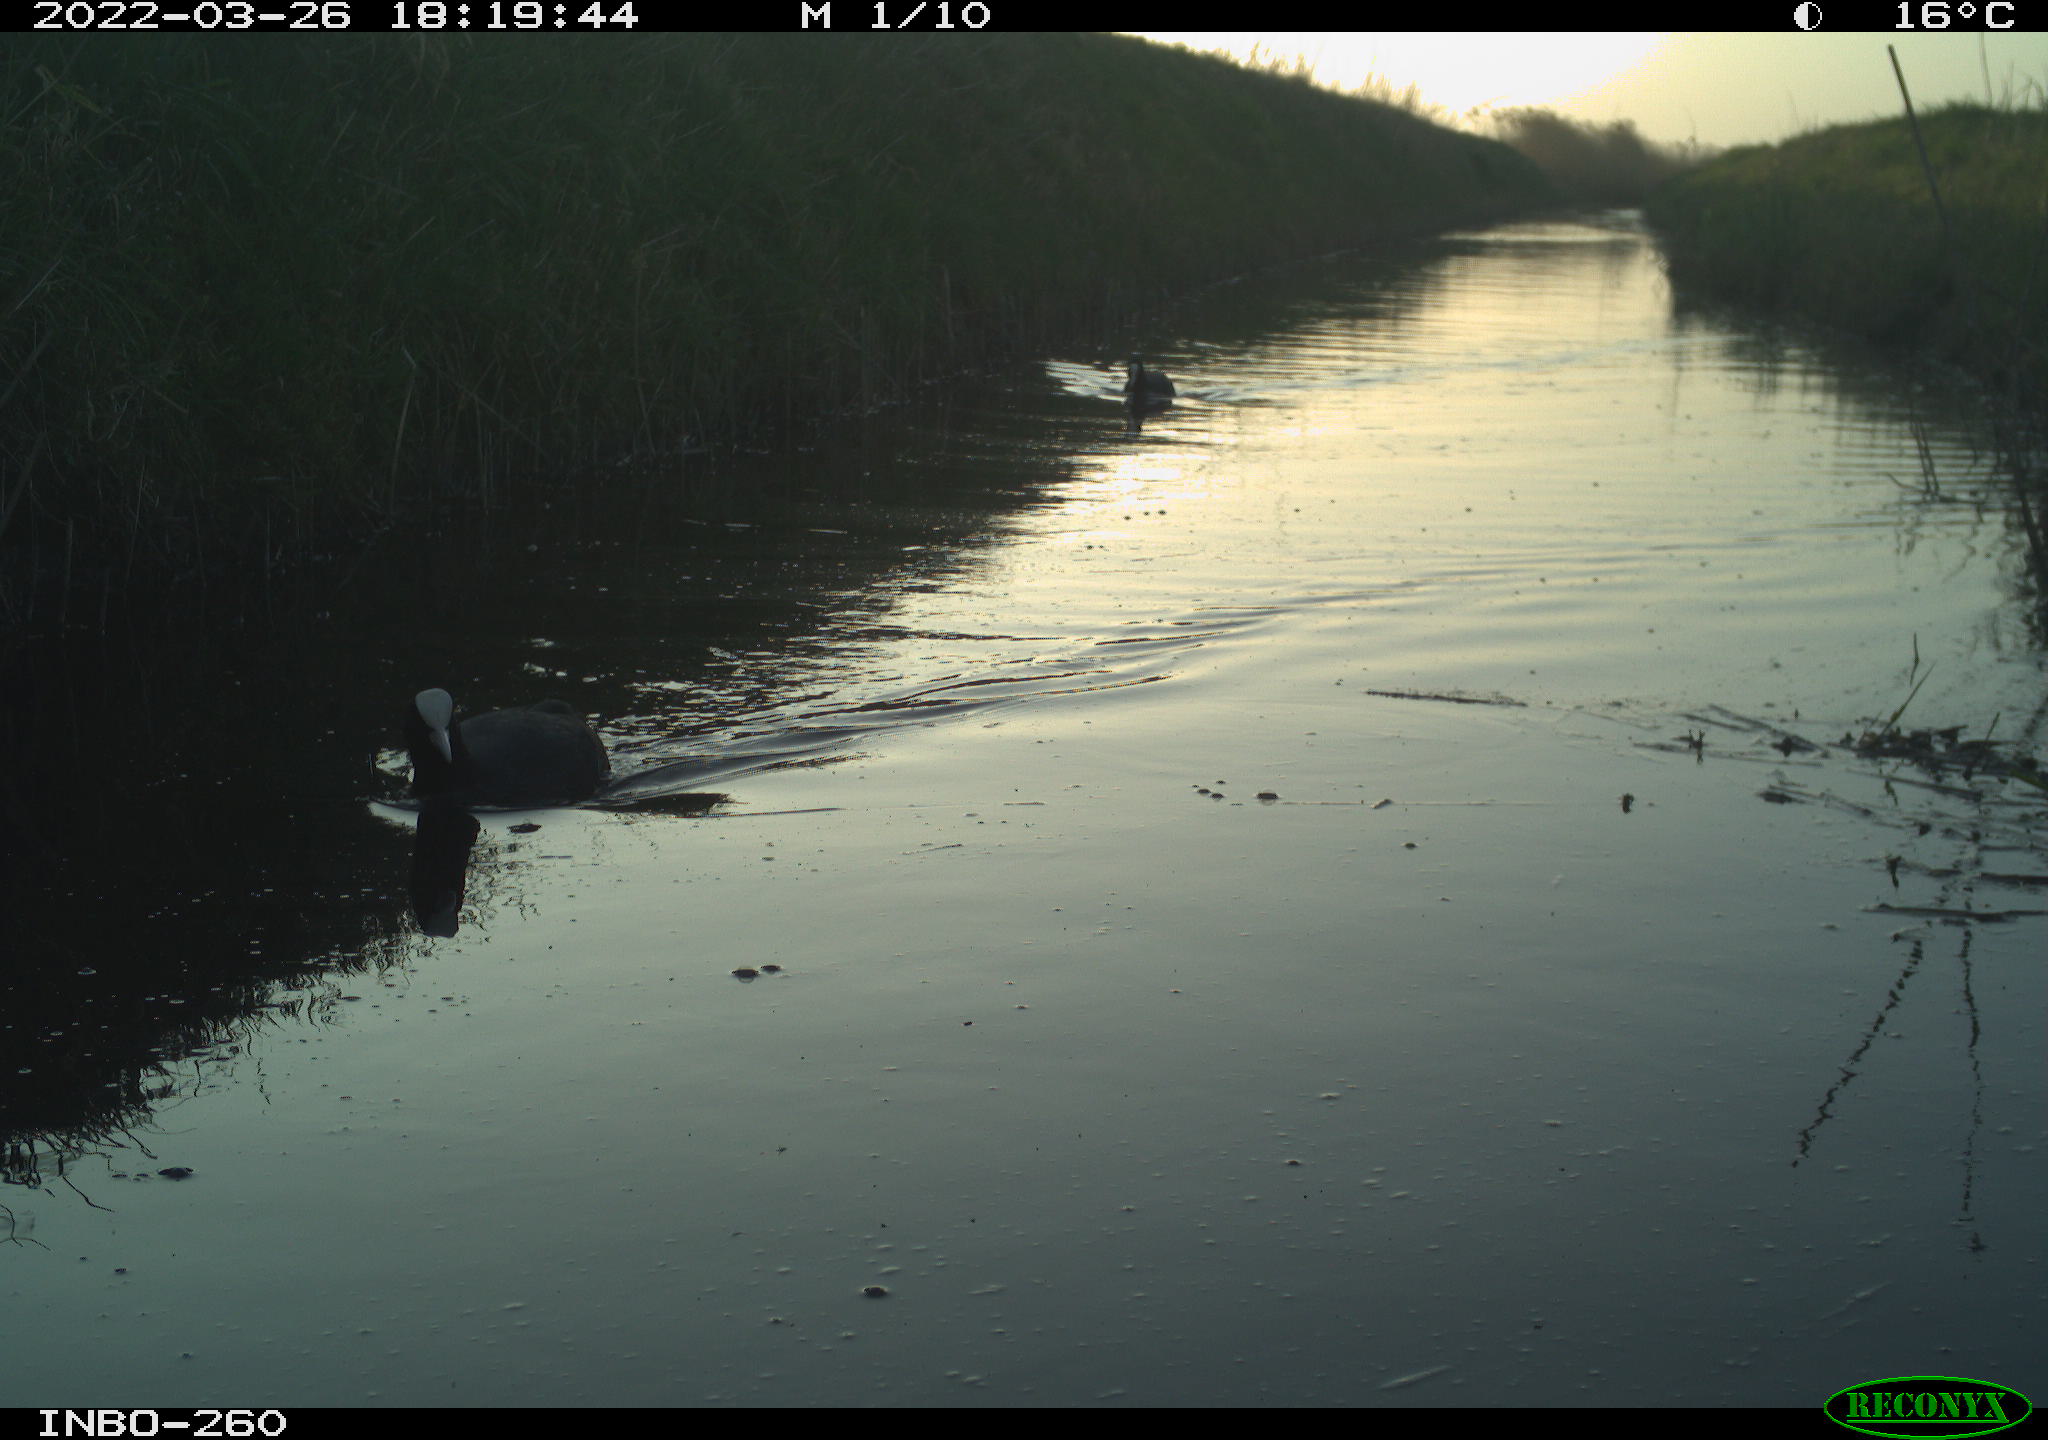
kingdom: Animalia
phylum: Chordata
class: Aves
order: Gruiformes
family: Rallidae
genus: Fulica
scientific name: Fulica atra
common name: Eurasian coot
